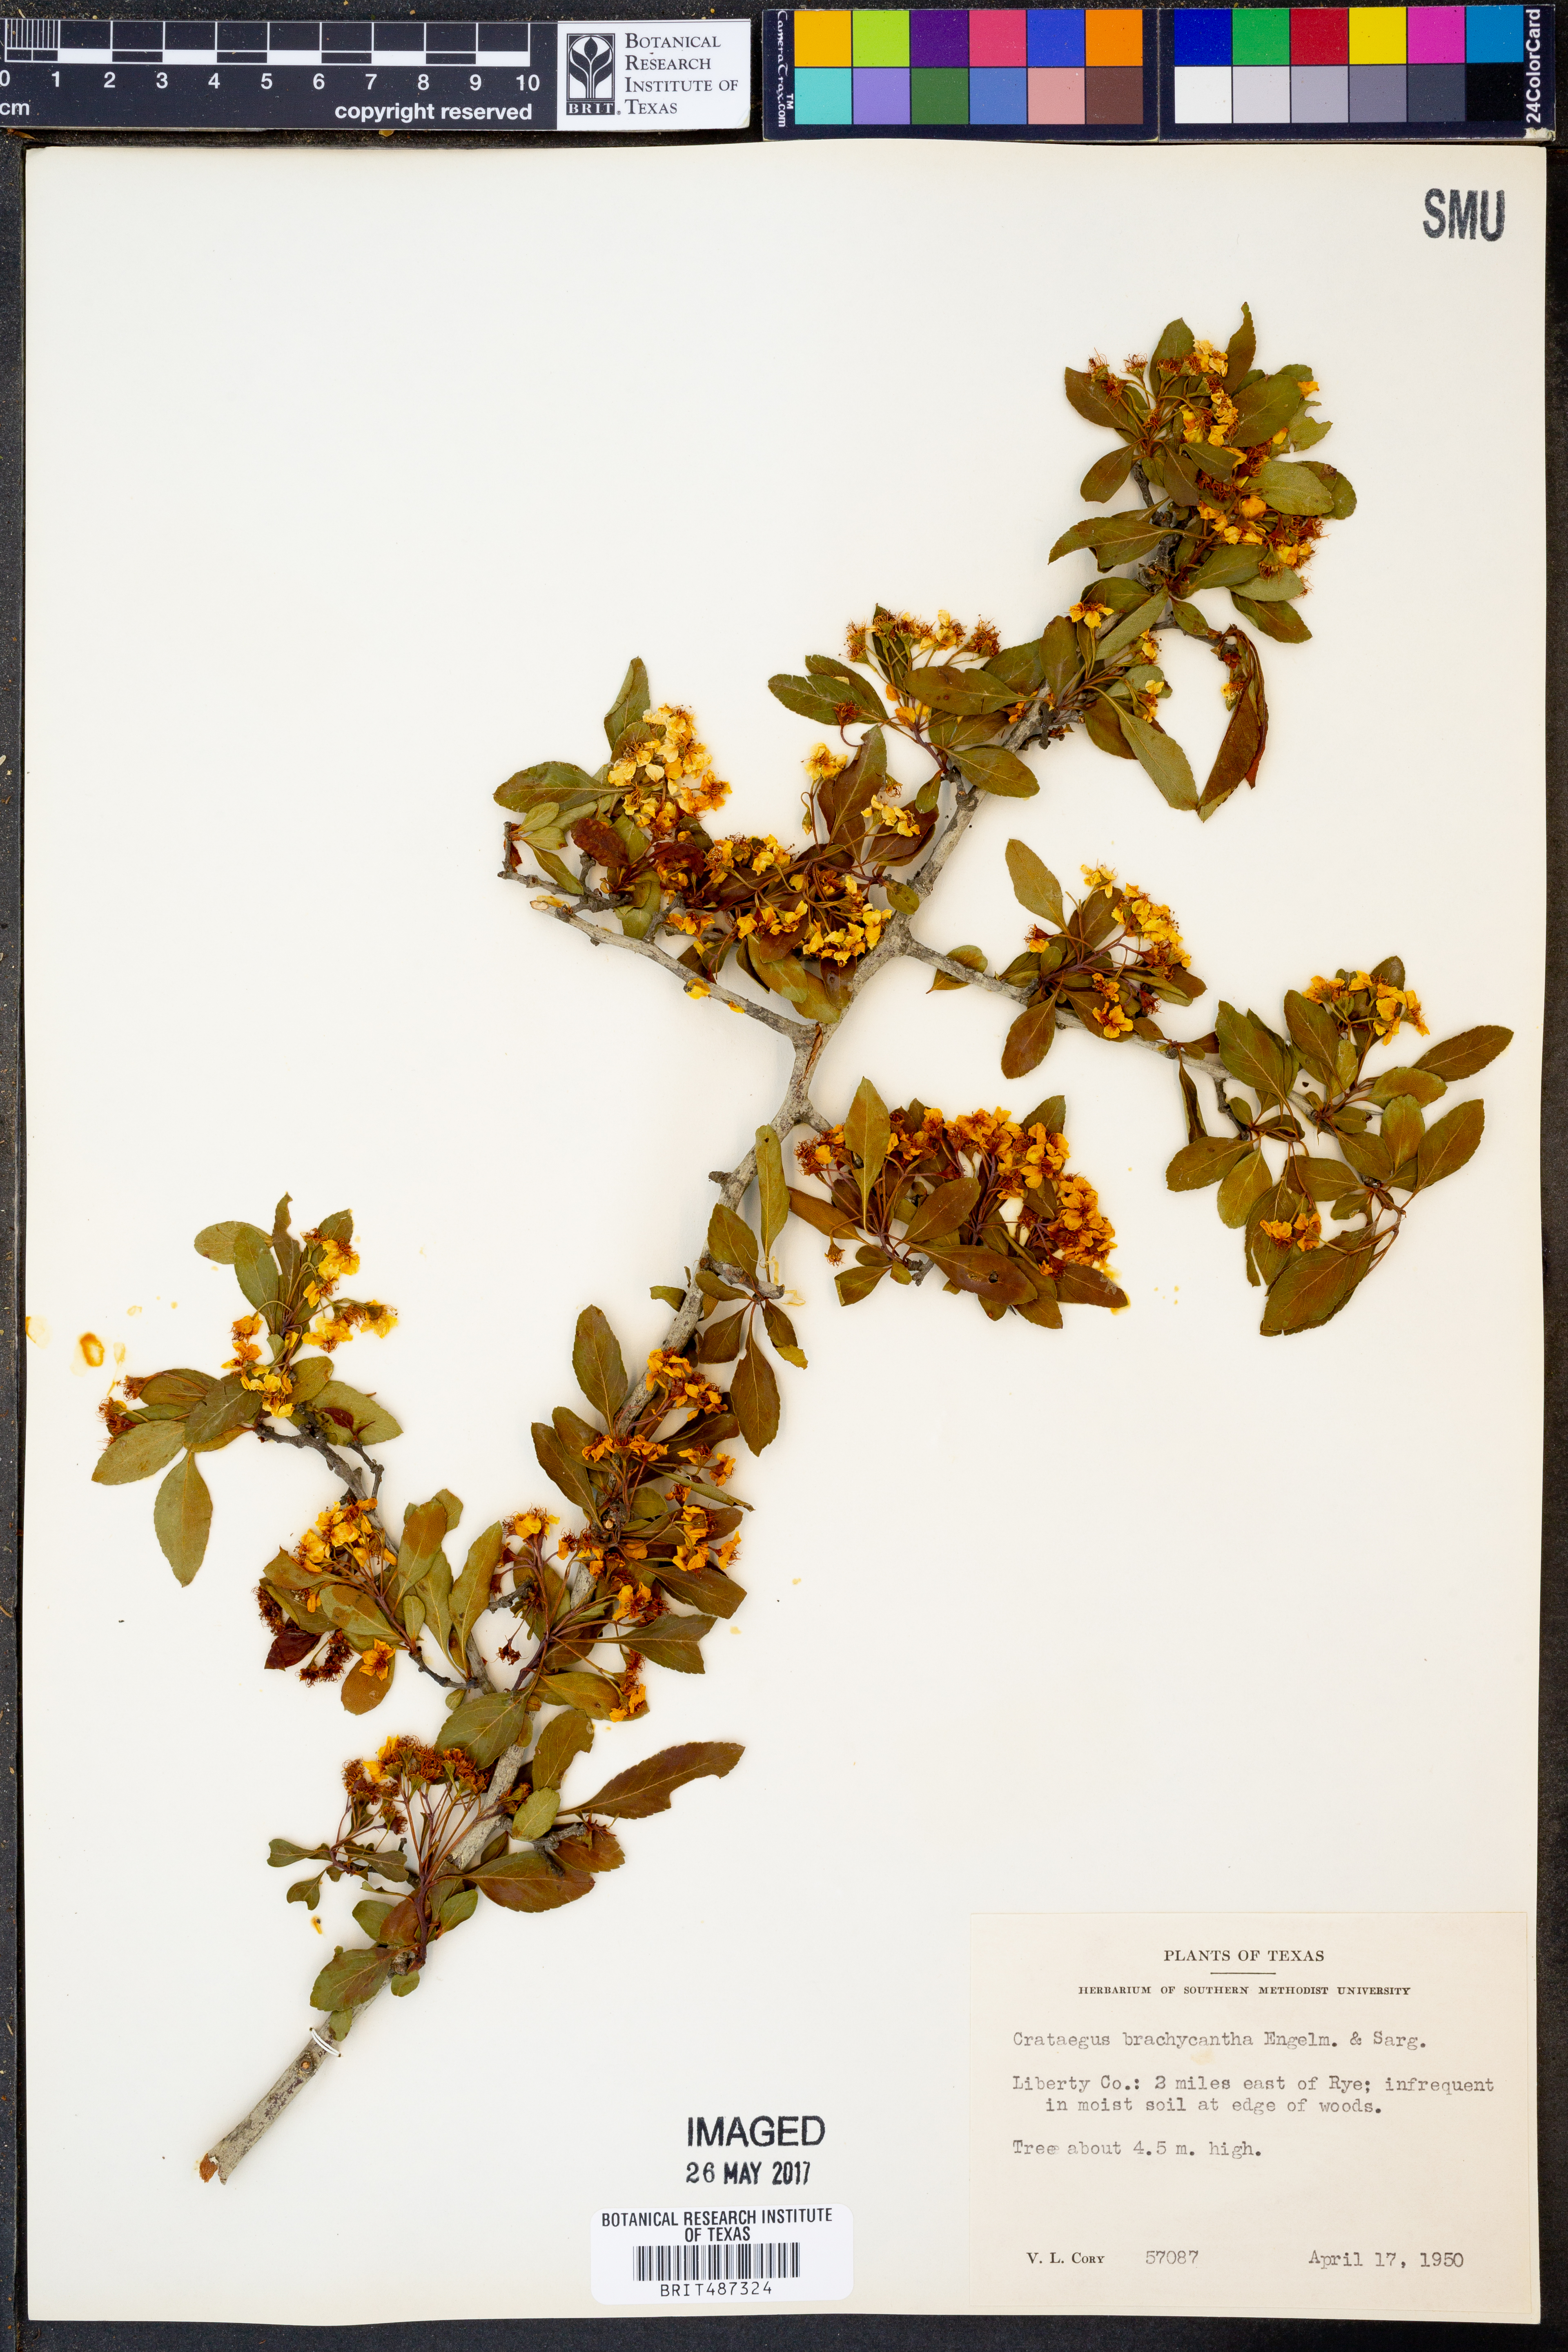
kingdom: Plantae
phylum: Tracheophyta
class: Magnoliopsida
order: Rosales
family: Rosaceae
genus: Crataegus
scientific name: Crataegus brachyacantha
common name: Blueberry-hawthorn
